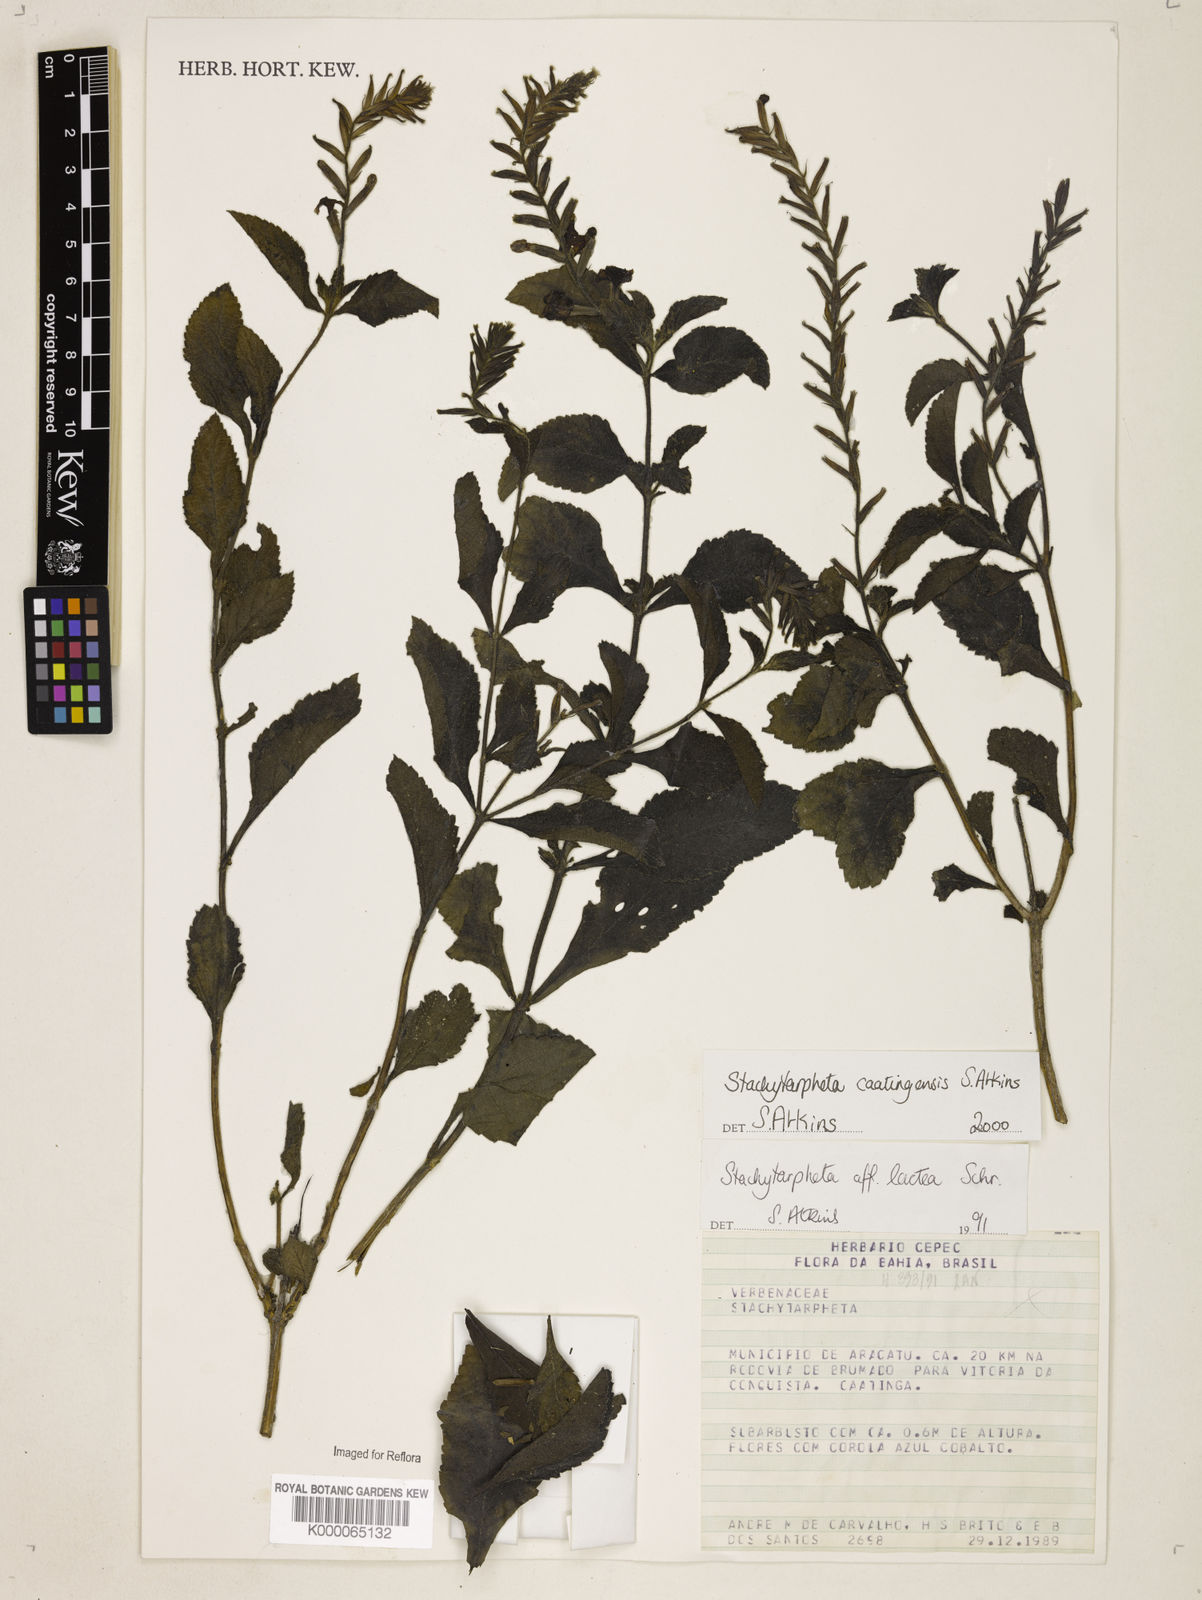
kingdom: Plantae
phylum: Tracheophyta
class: Magnoliopsida
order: Lamiales
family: Verbenaceae
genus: Stachytarpheta
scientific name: Stachytarpheta brasiliensis
